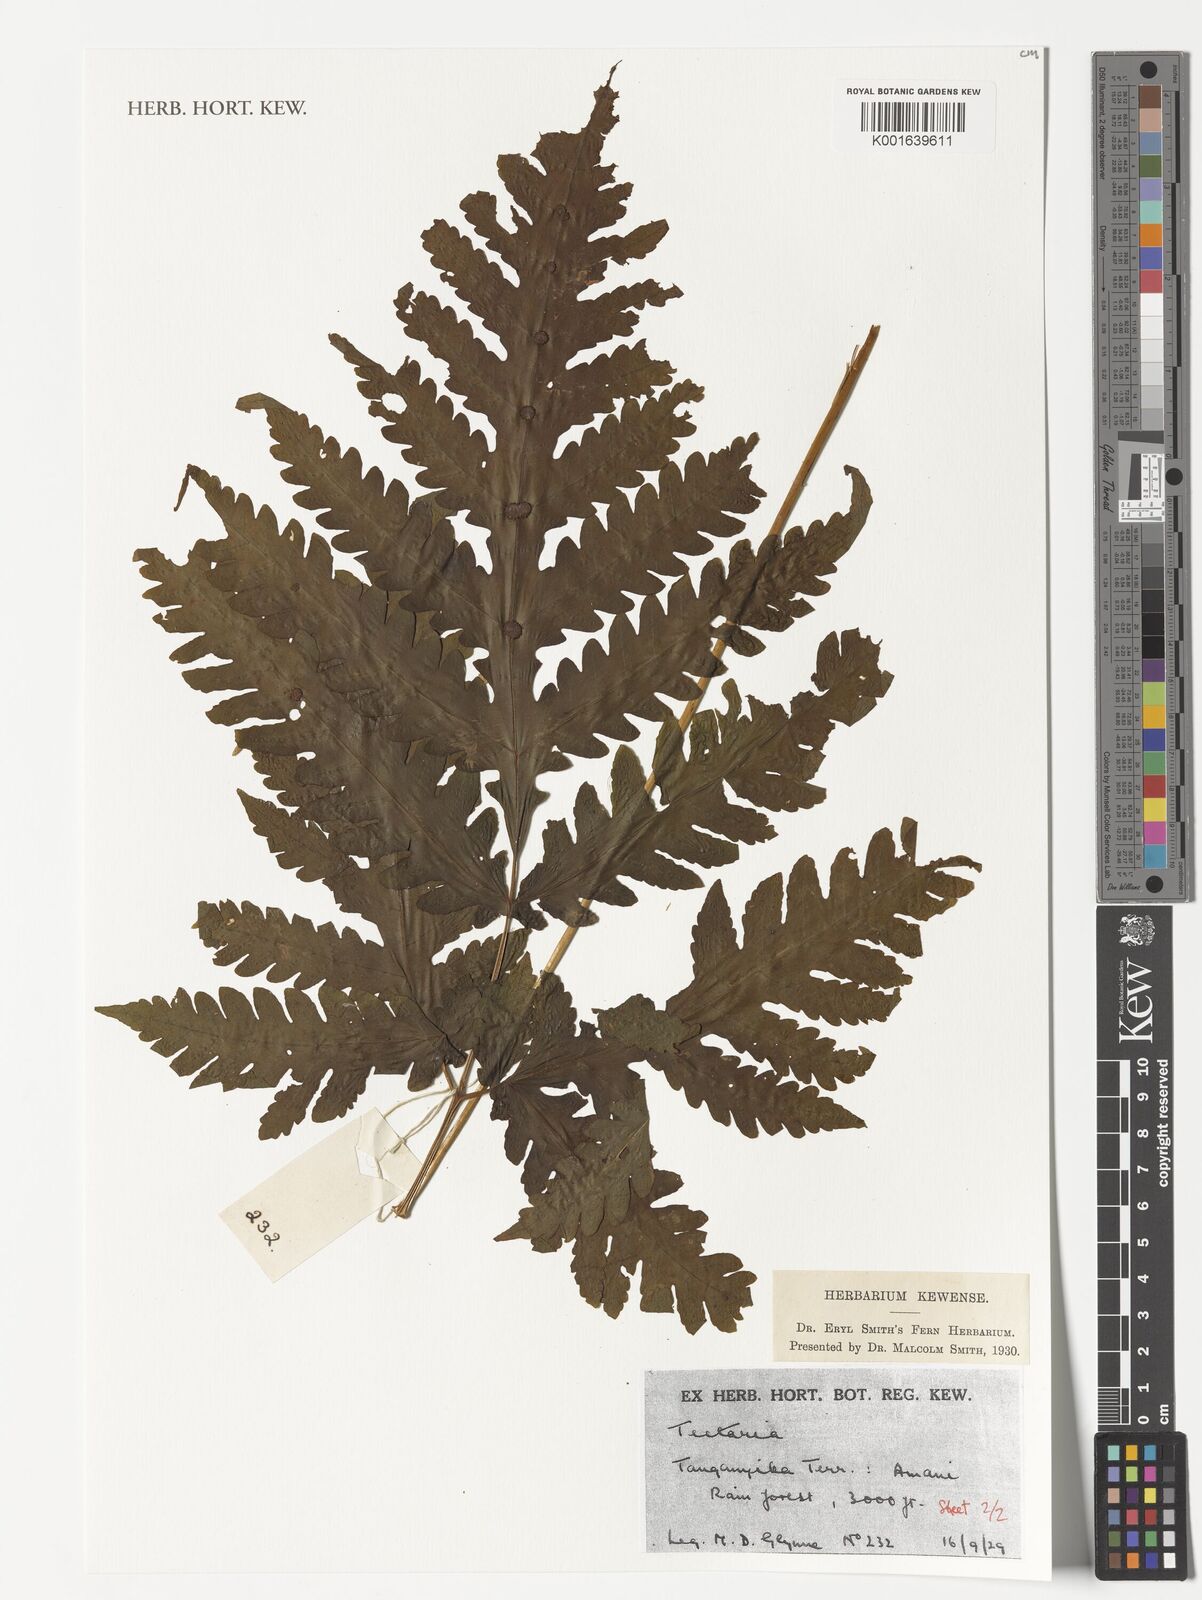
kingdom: Plantae
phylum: Tracheophyta
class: Polypodiopsida
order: Polypodiales
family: Tectariaceae
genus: Tectaria
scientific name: Tectaria
